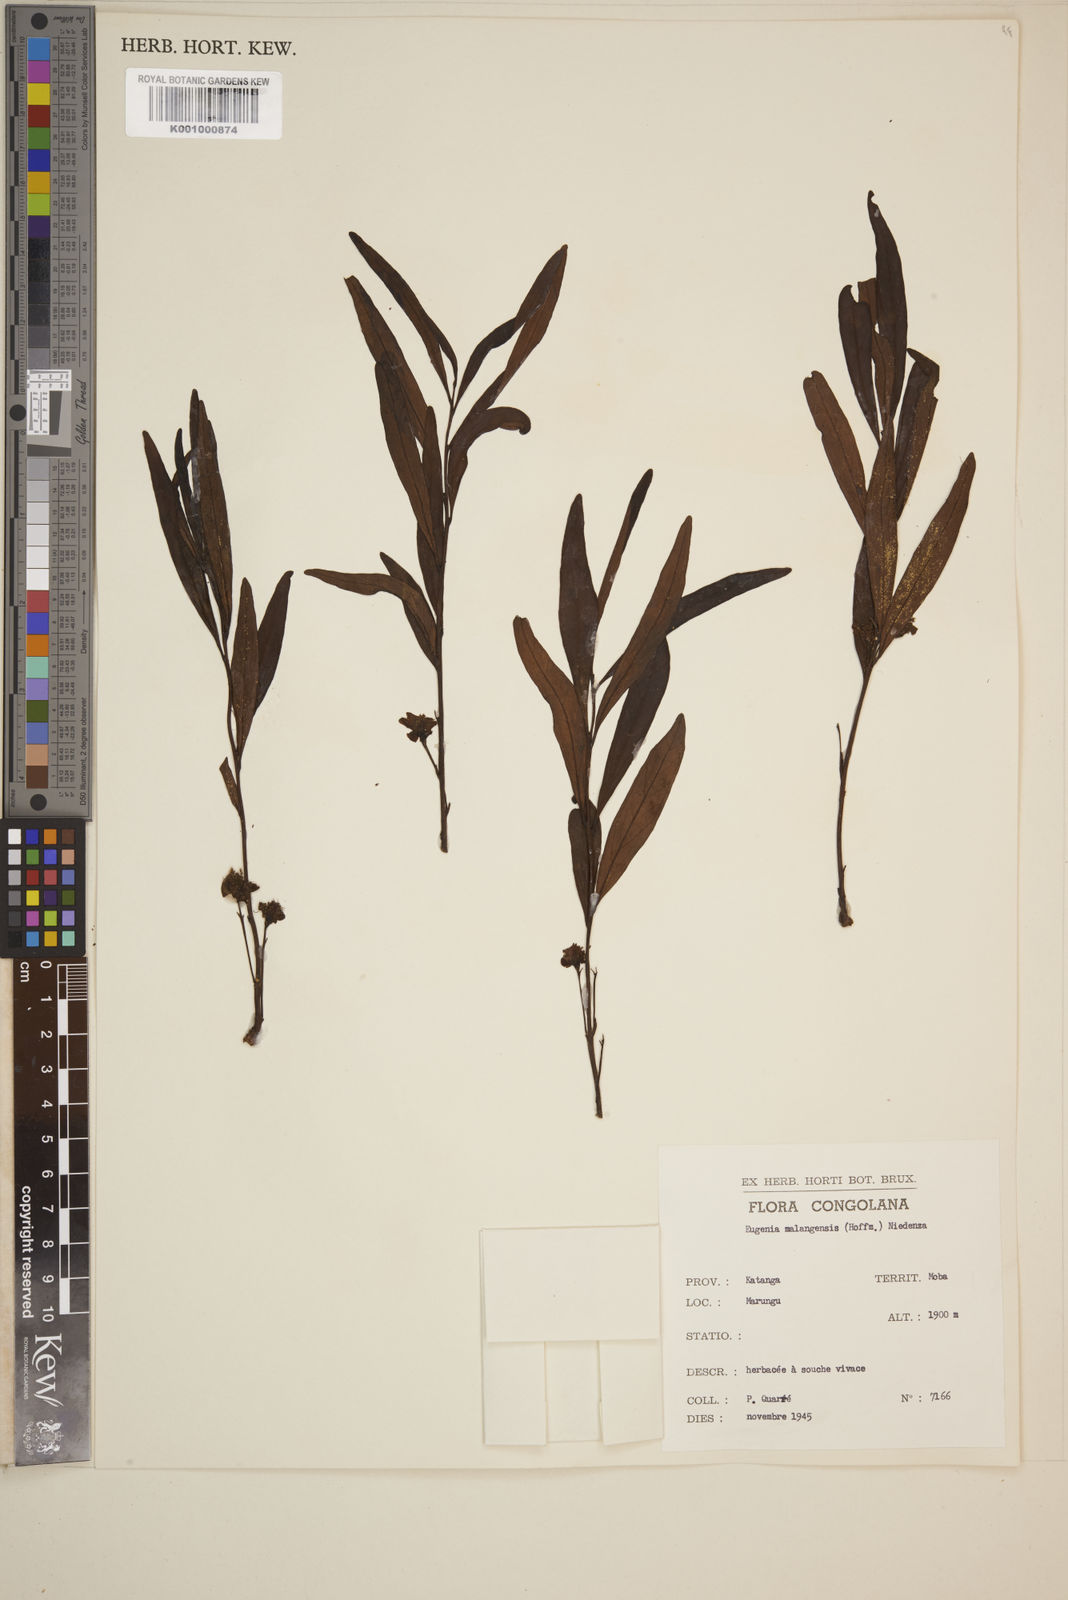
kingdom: Plantae
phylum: Tracheophyta
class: Magnoliopsida
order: Myrtales
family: Myrtaceae
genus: Eugenia
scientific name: Eugenia malangensis
